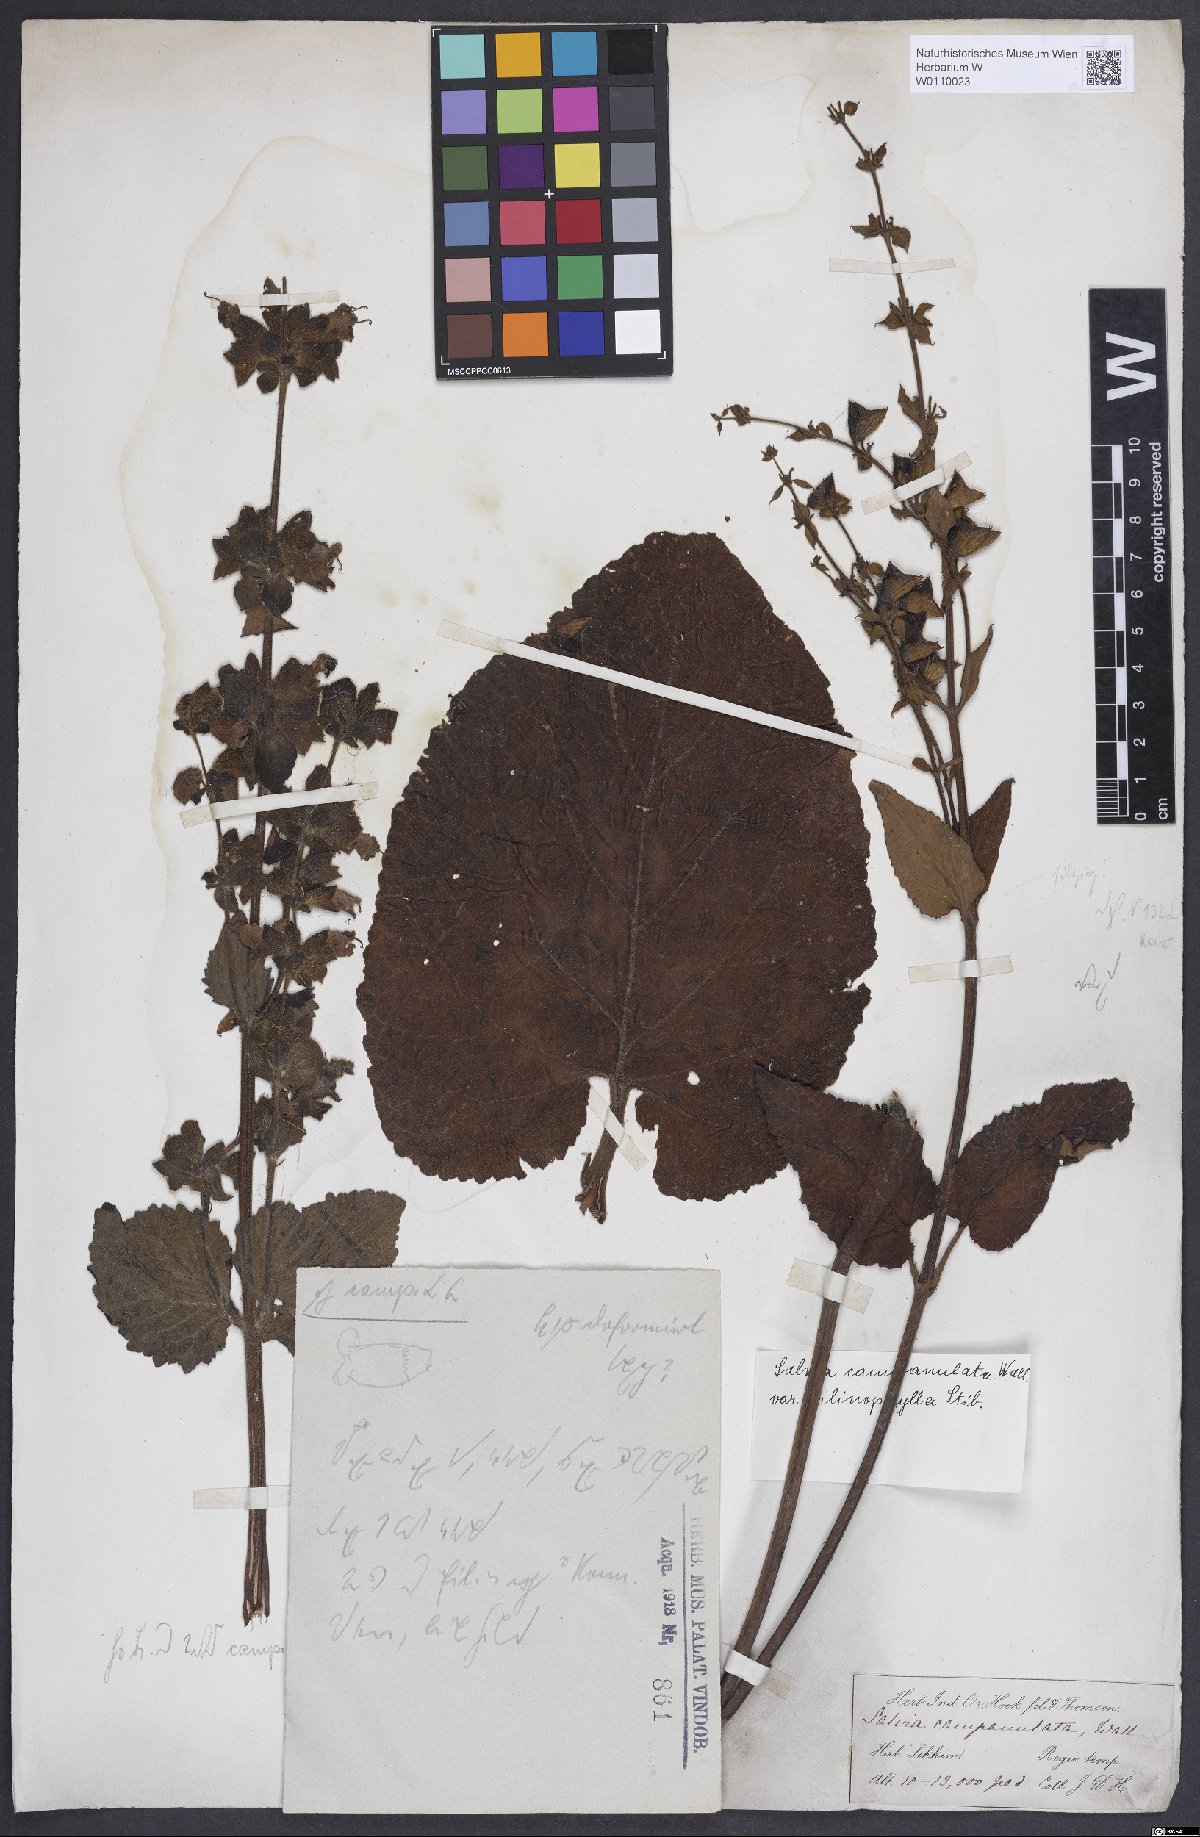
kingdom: Plantae
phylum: Tracheophyta
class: Magnoliopsida
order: Lamiales
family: Lamiaceae
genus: Salvia
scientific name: Salvia campanulata
